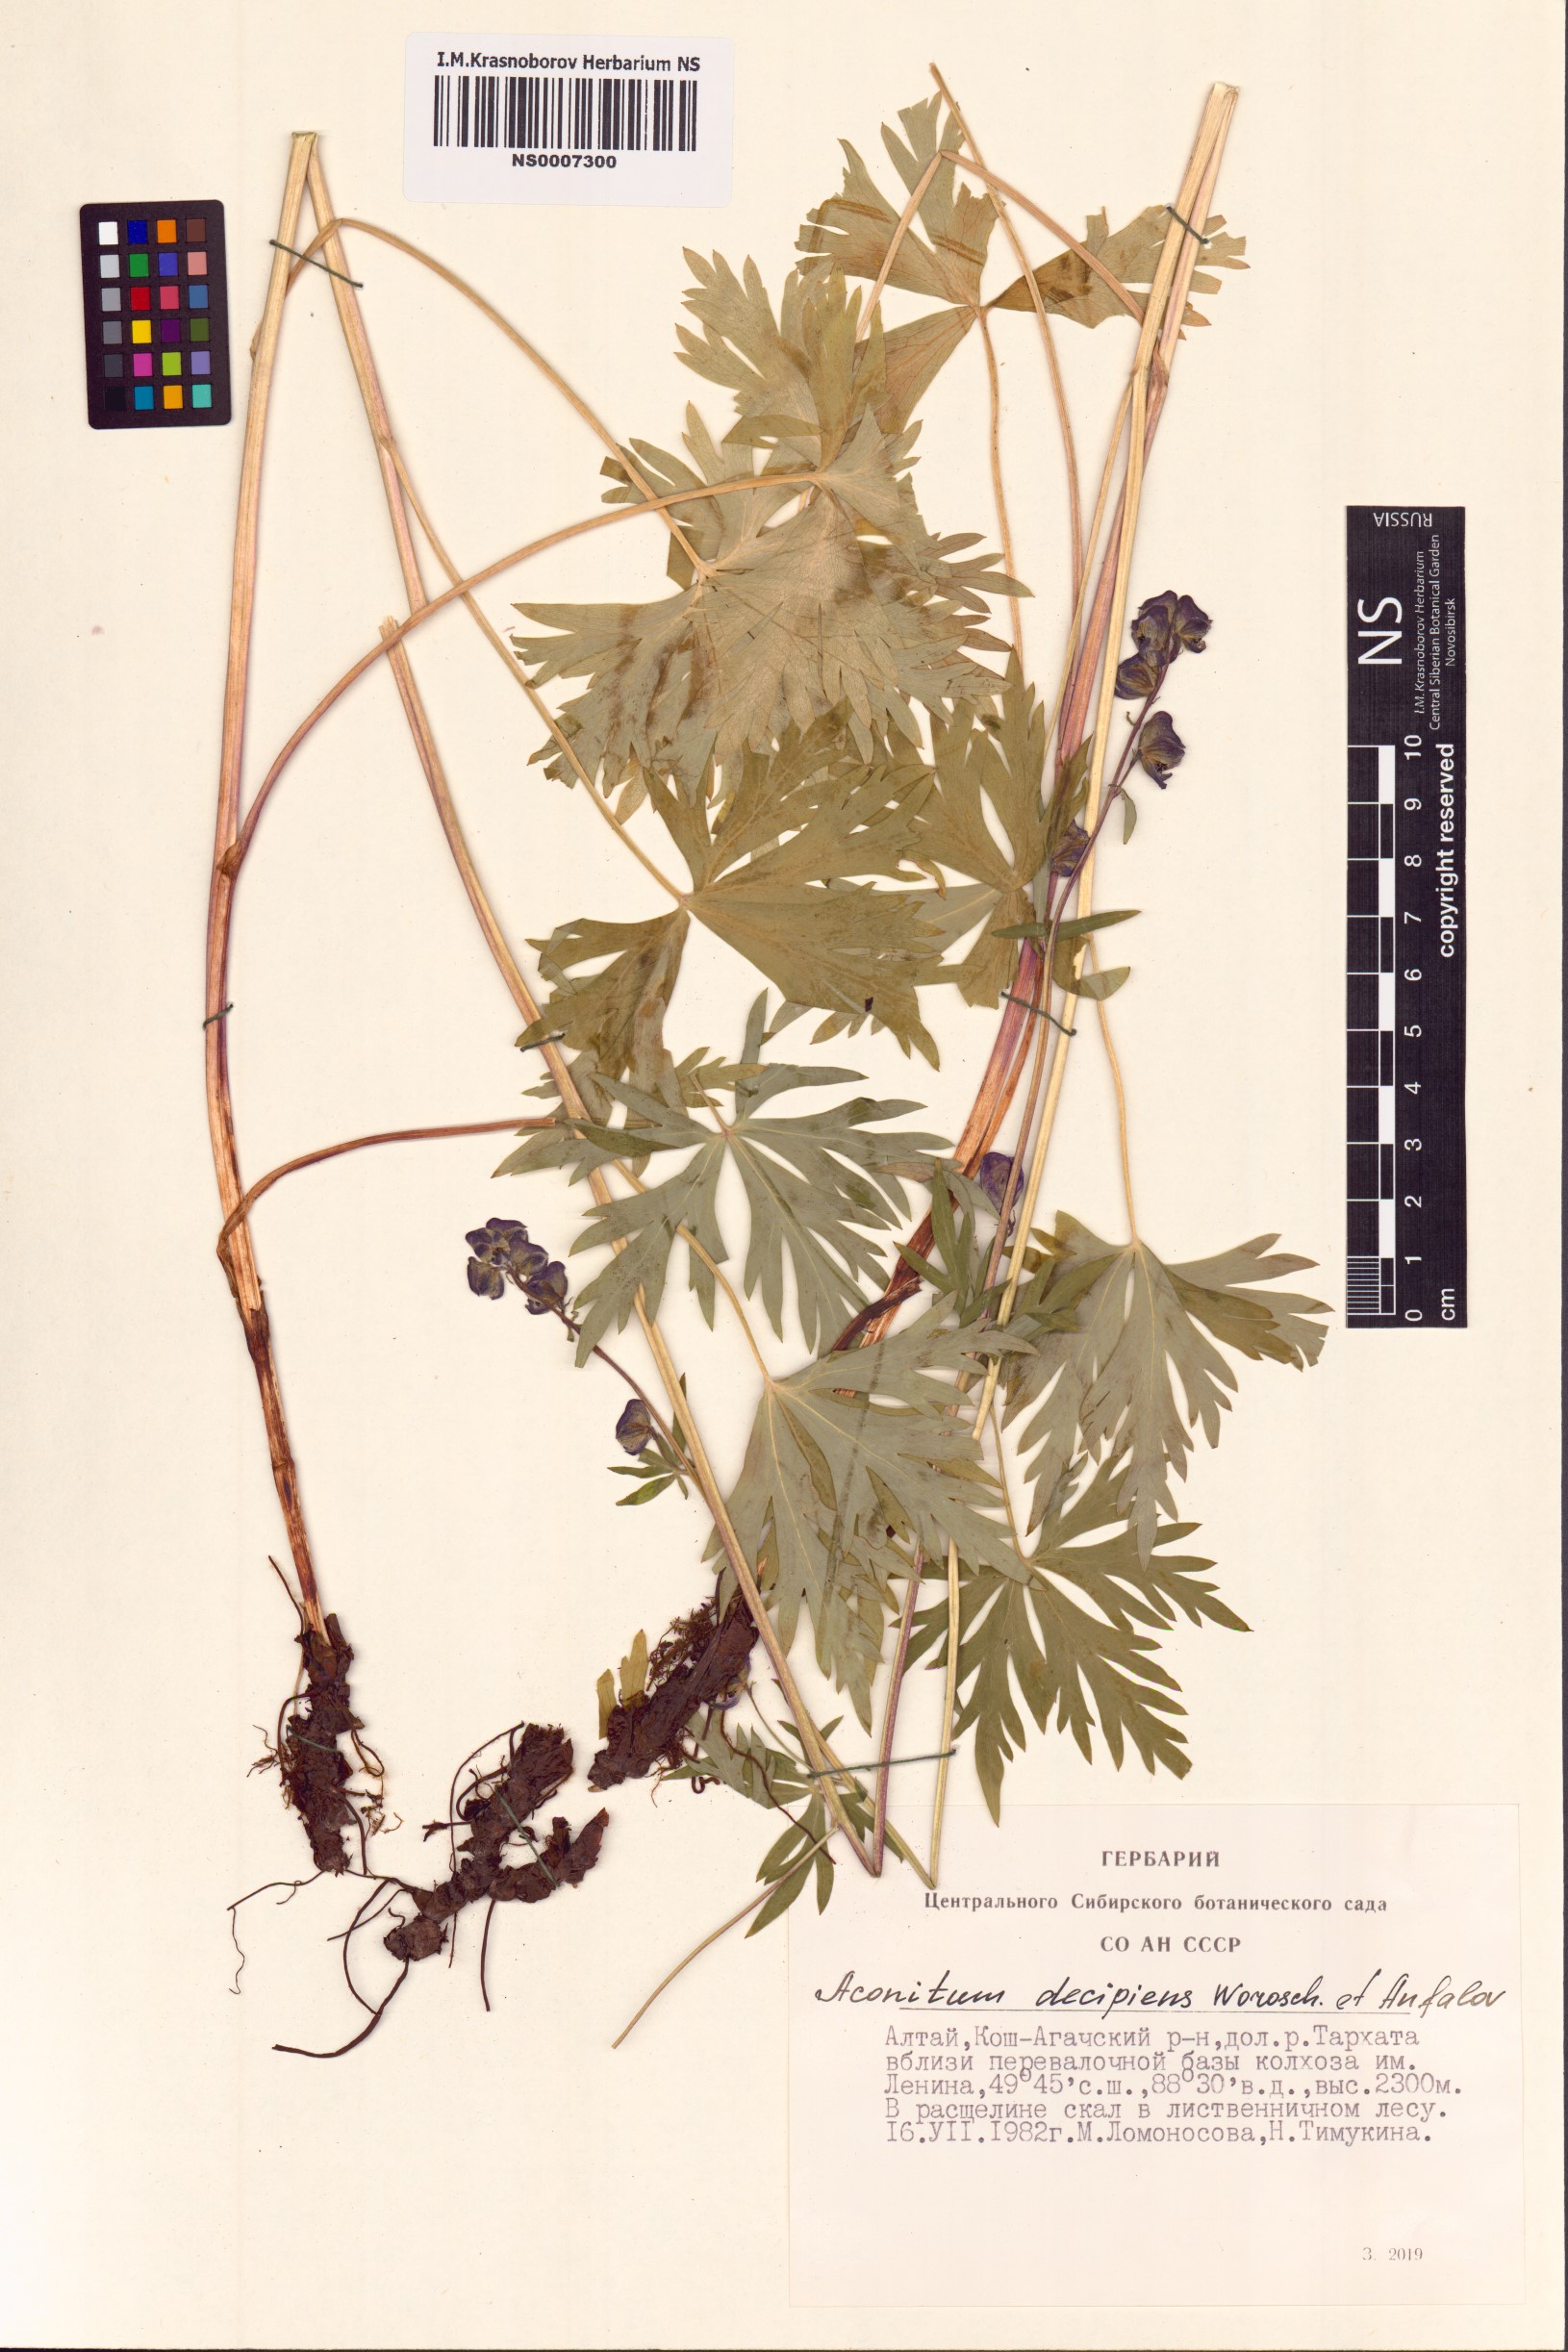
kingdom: Plantae
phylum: Tracheophyta
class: Magnoliopsida
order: Ranunculales
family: Ranunculaceae
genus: Aconitum
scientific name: Aconitum decipiens
